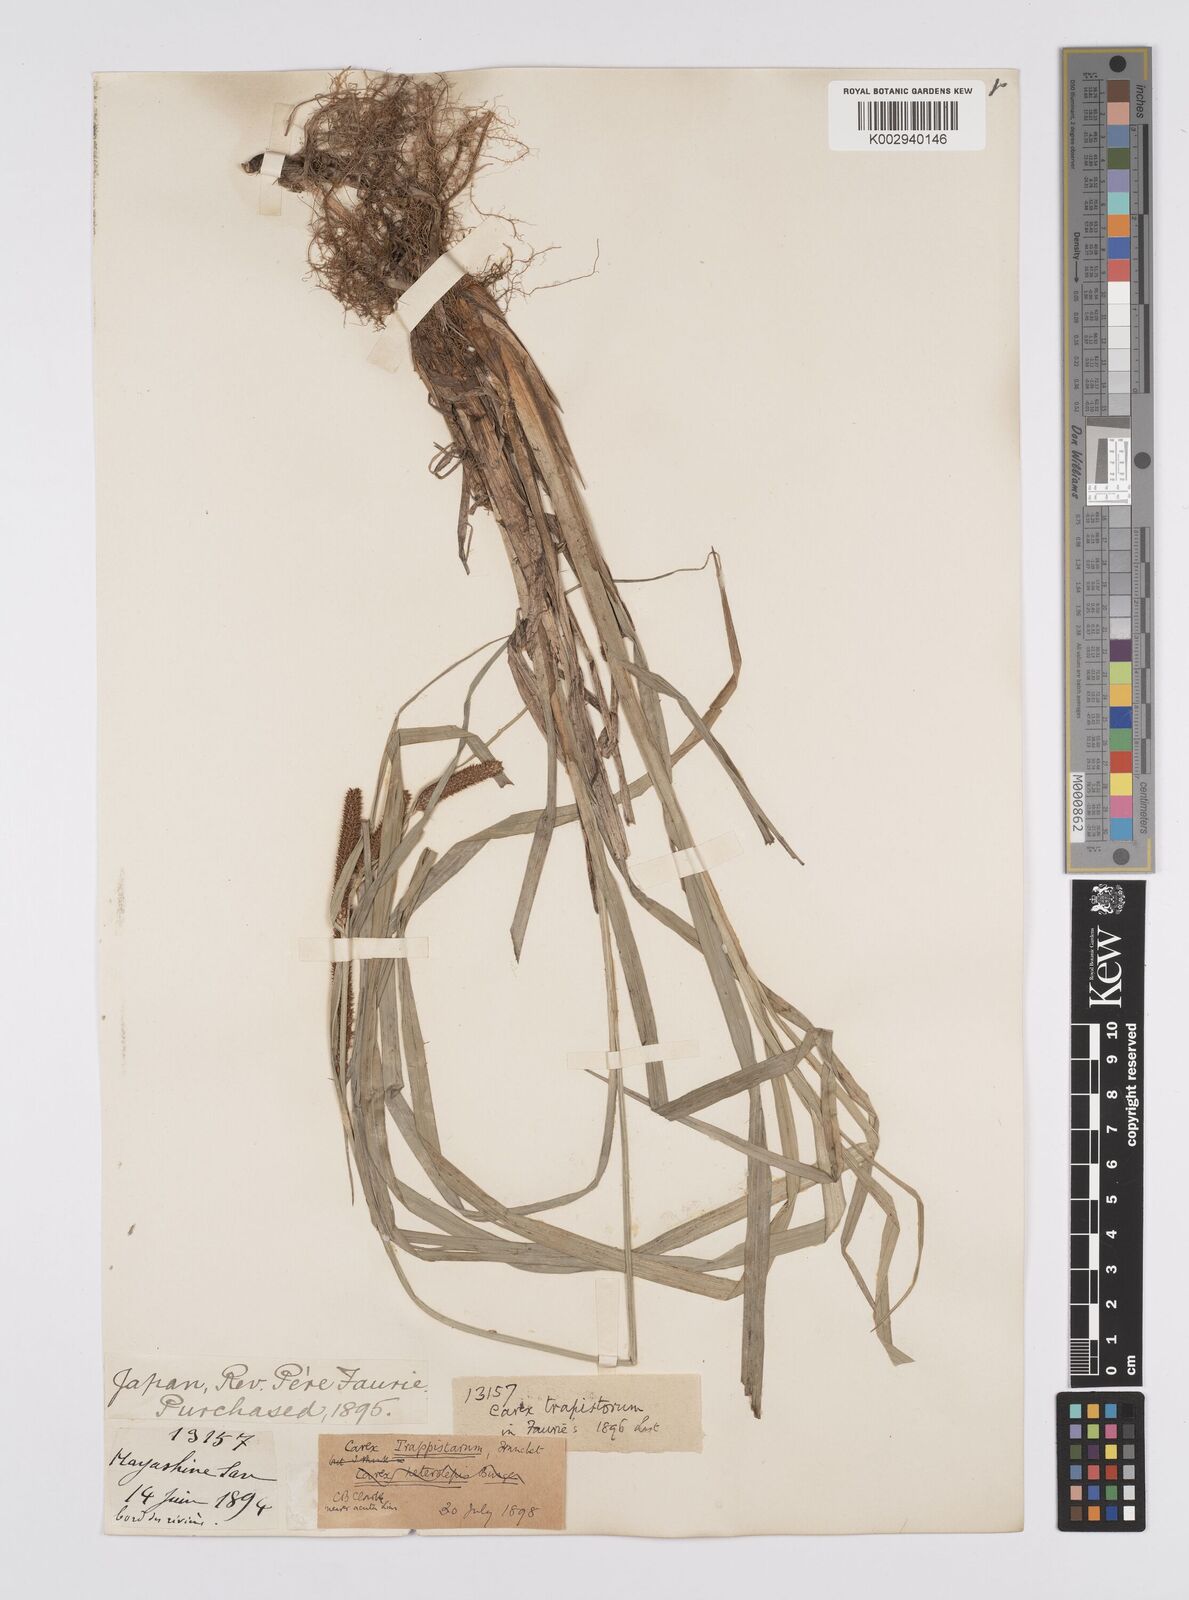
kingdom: Plantae
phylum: Tracheophyta
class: Liliopsida
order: Poales
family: Cyperaceae
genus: Carex
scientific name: Carex cruenta
